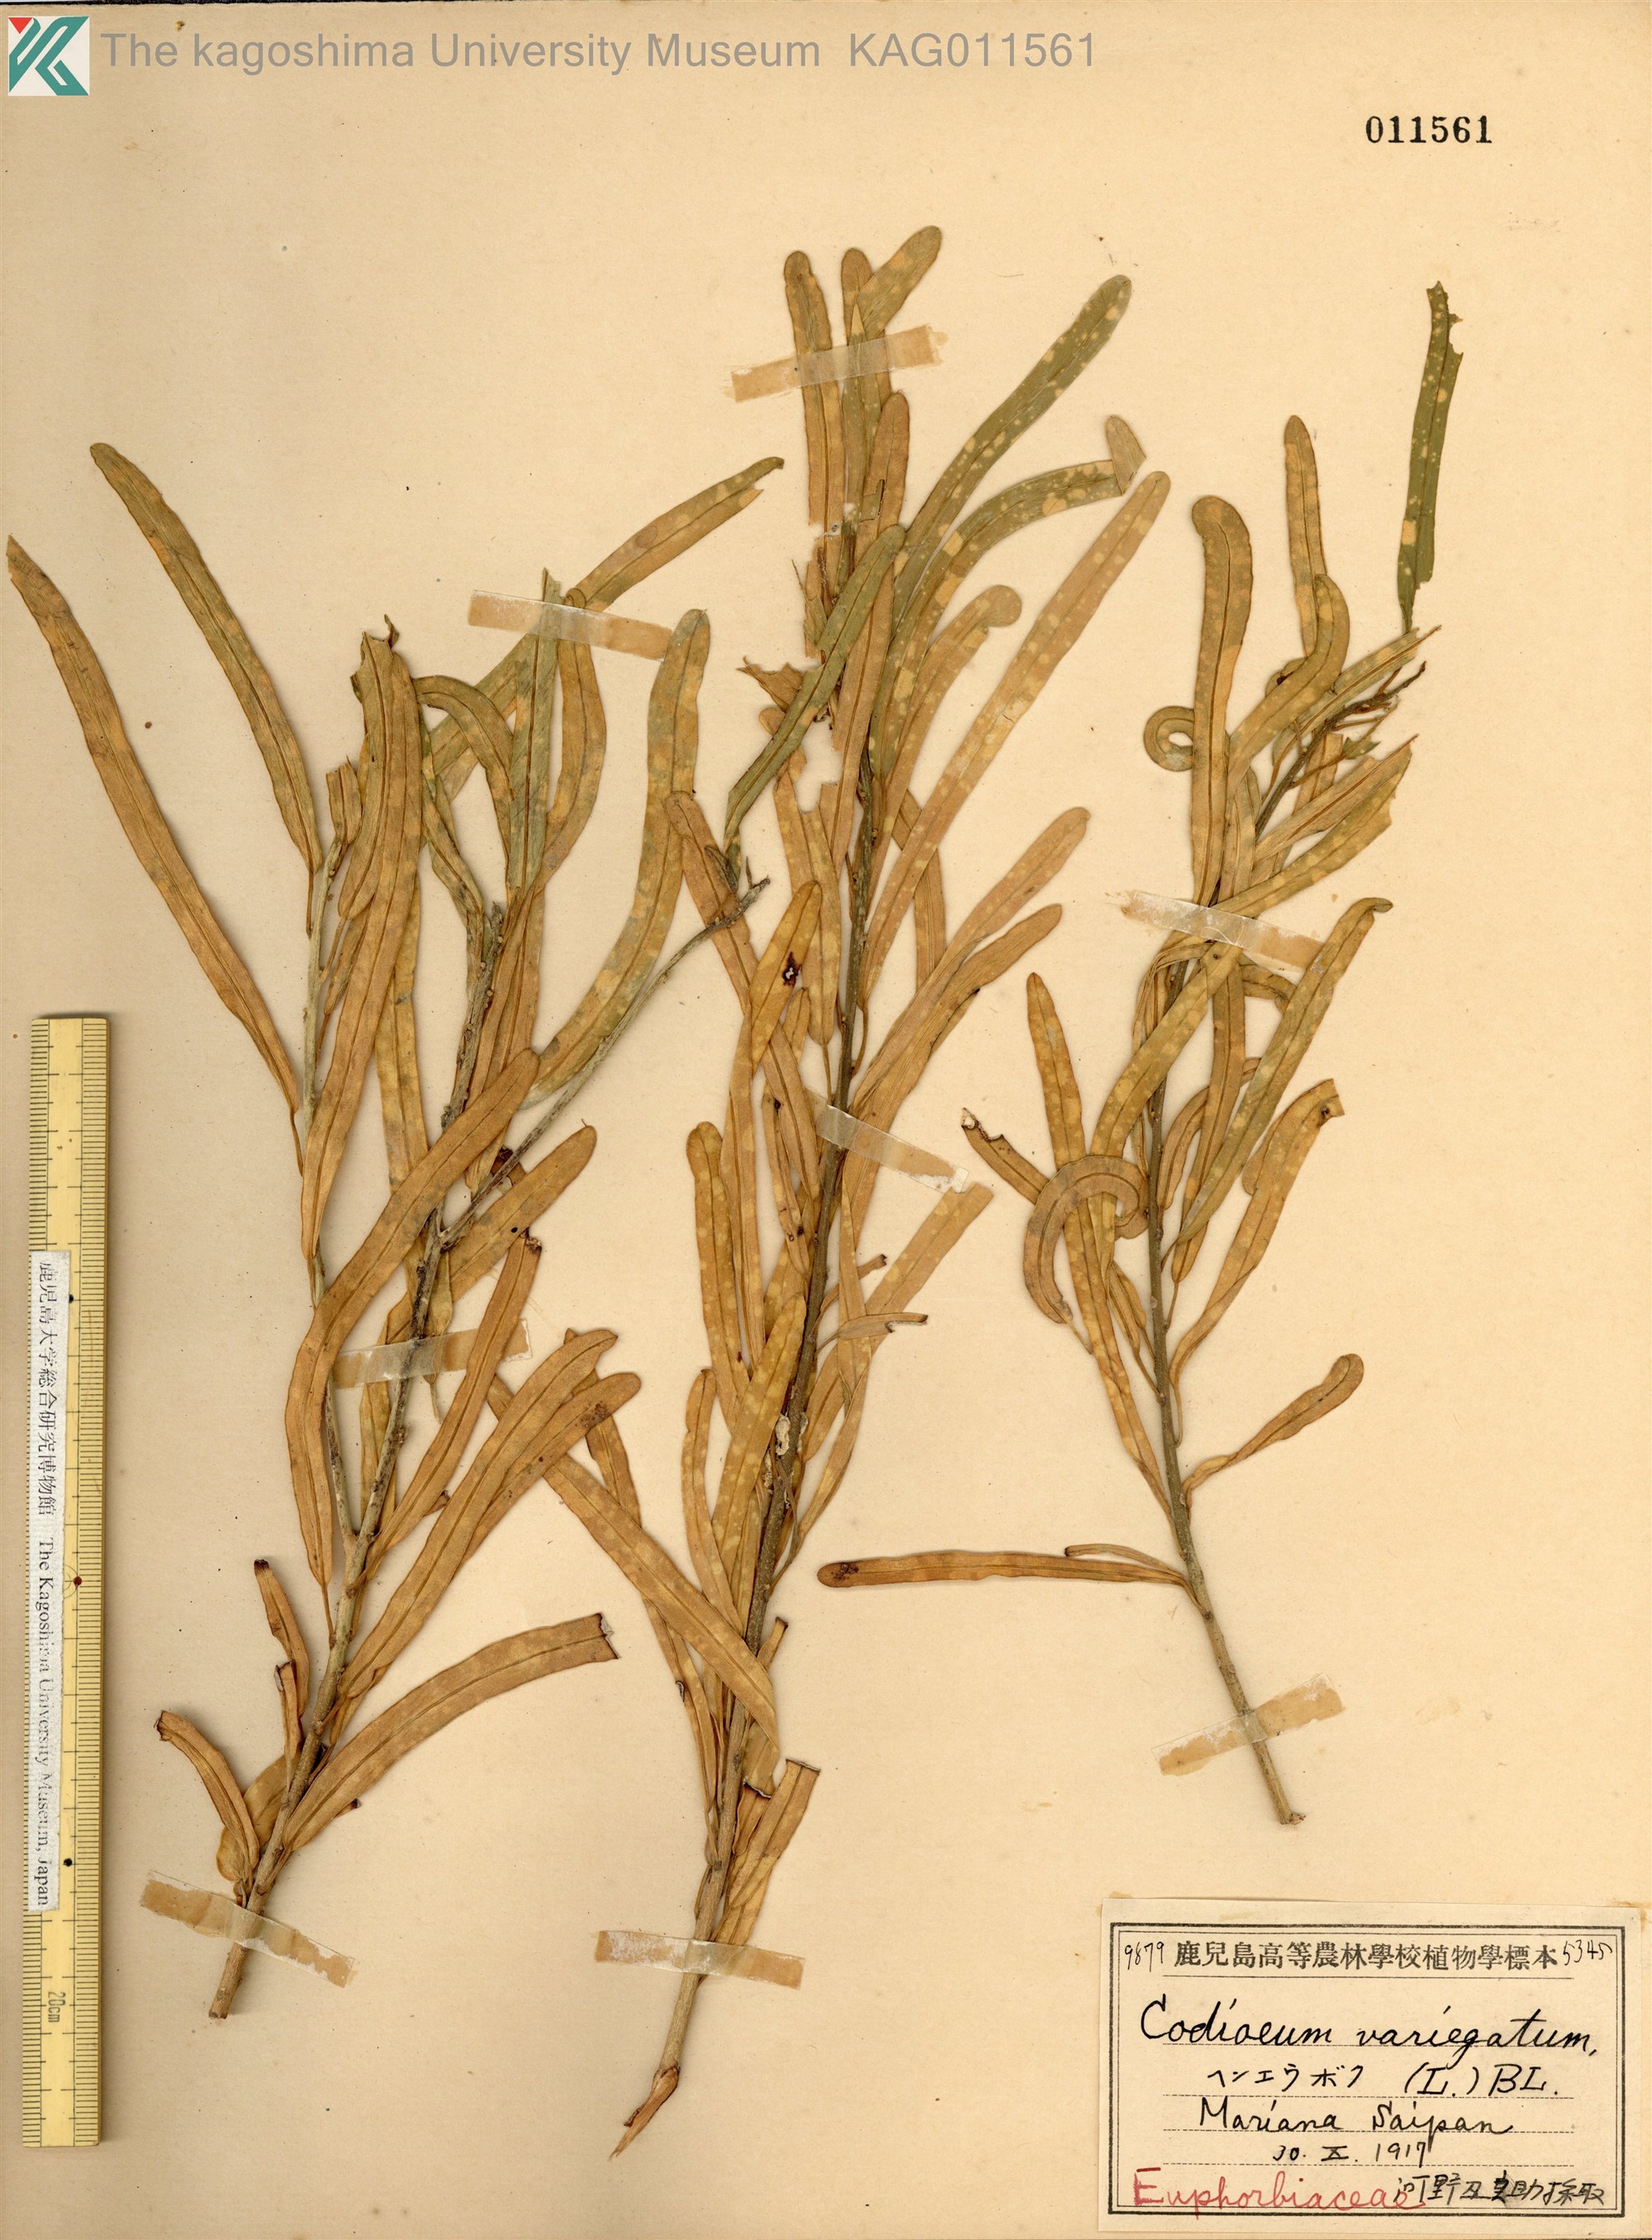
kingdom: Plantae
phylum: Tracheophyta
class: Magnoliopsida
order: Malpighiales
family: Euphorbiaceae
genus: Codiaeum
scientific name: Codiaeum variegatum
